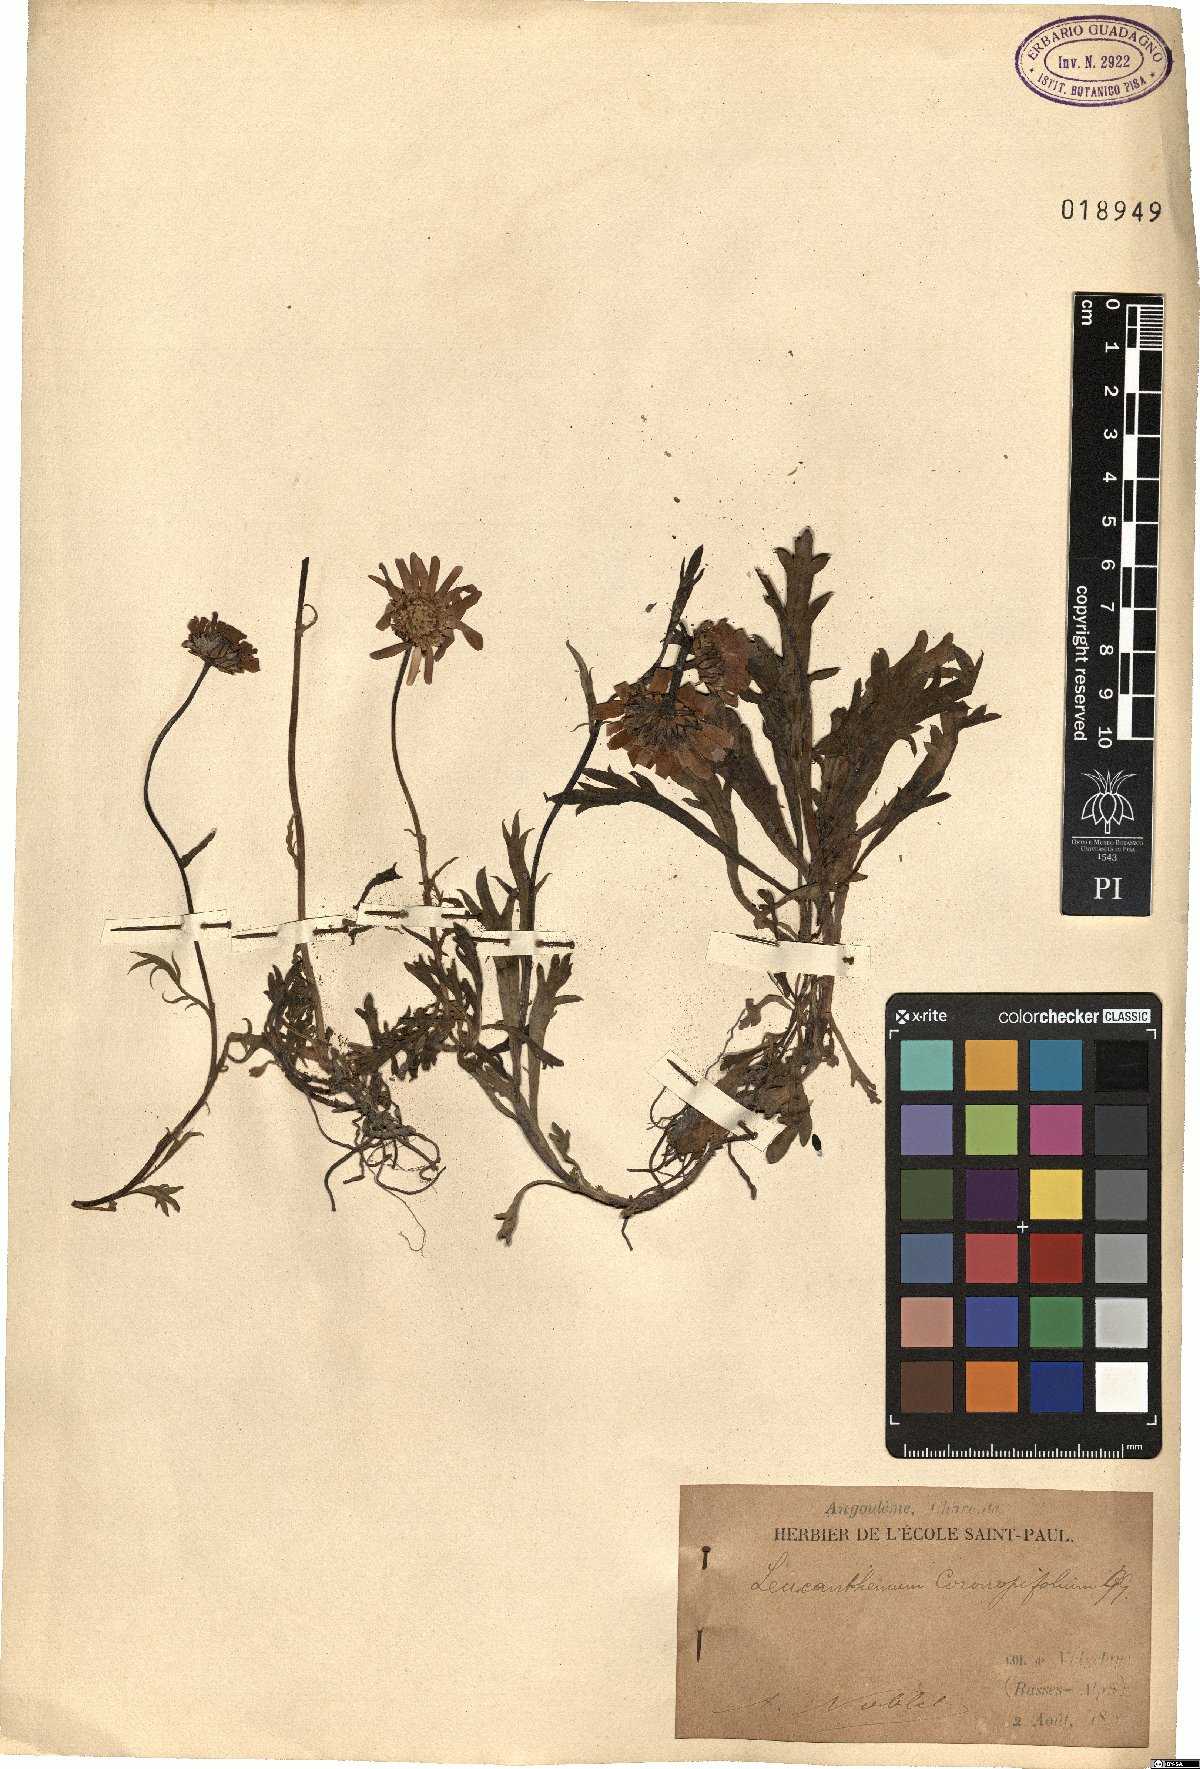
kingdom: Plantae
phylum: Tracheophyta
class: Magnoliopsida
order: Asterales
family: Asteraceae
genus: Leucanthemum
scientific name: Leucanthemum coronopifolium
